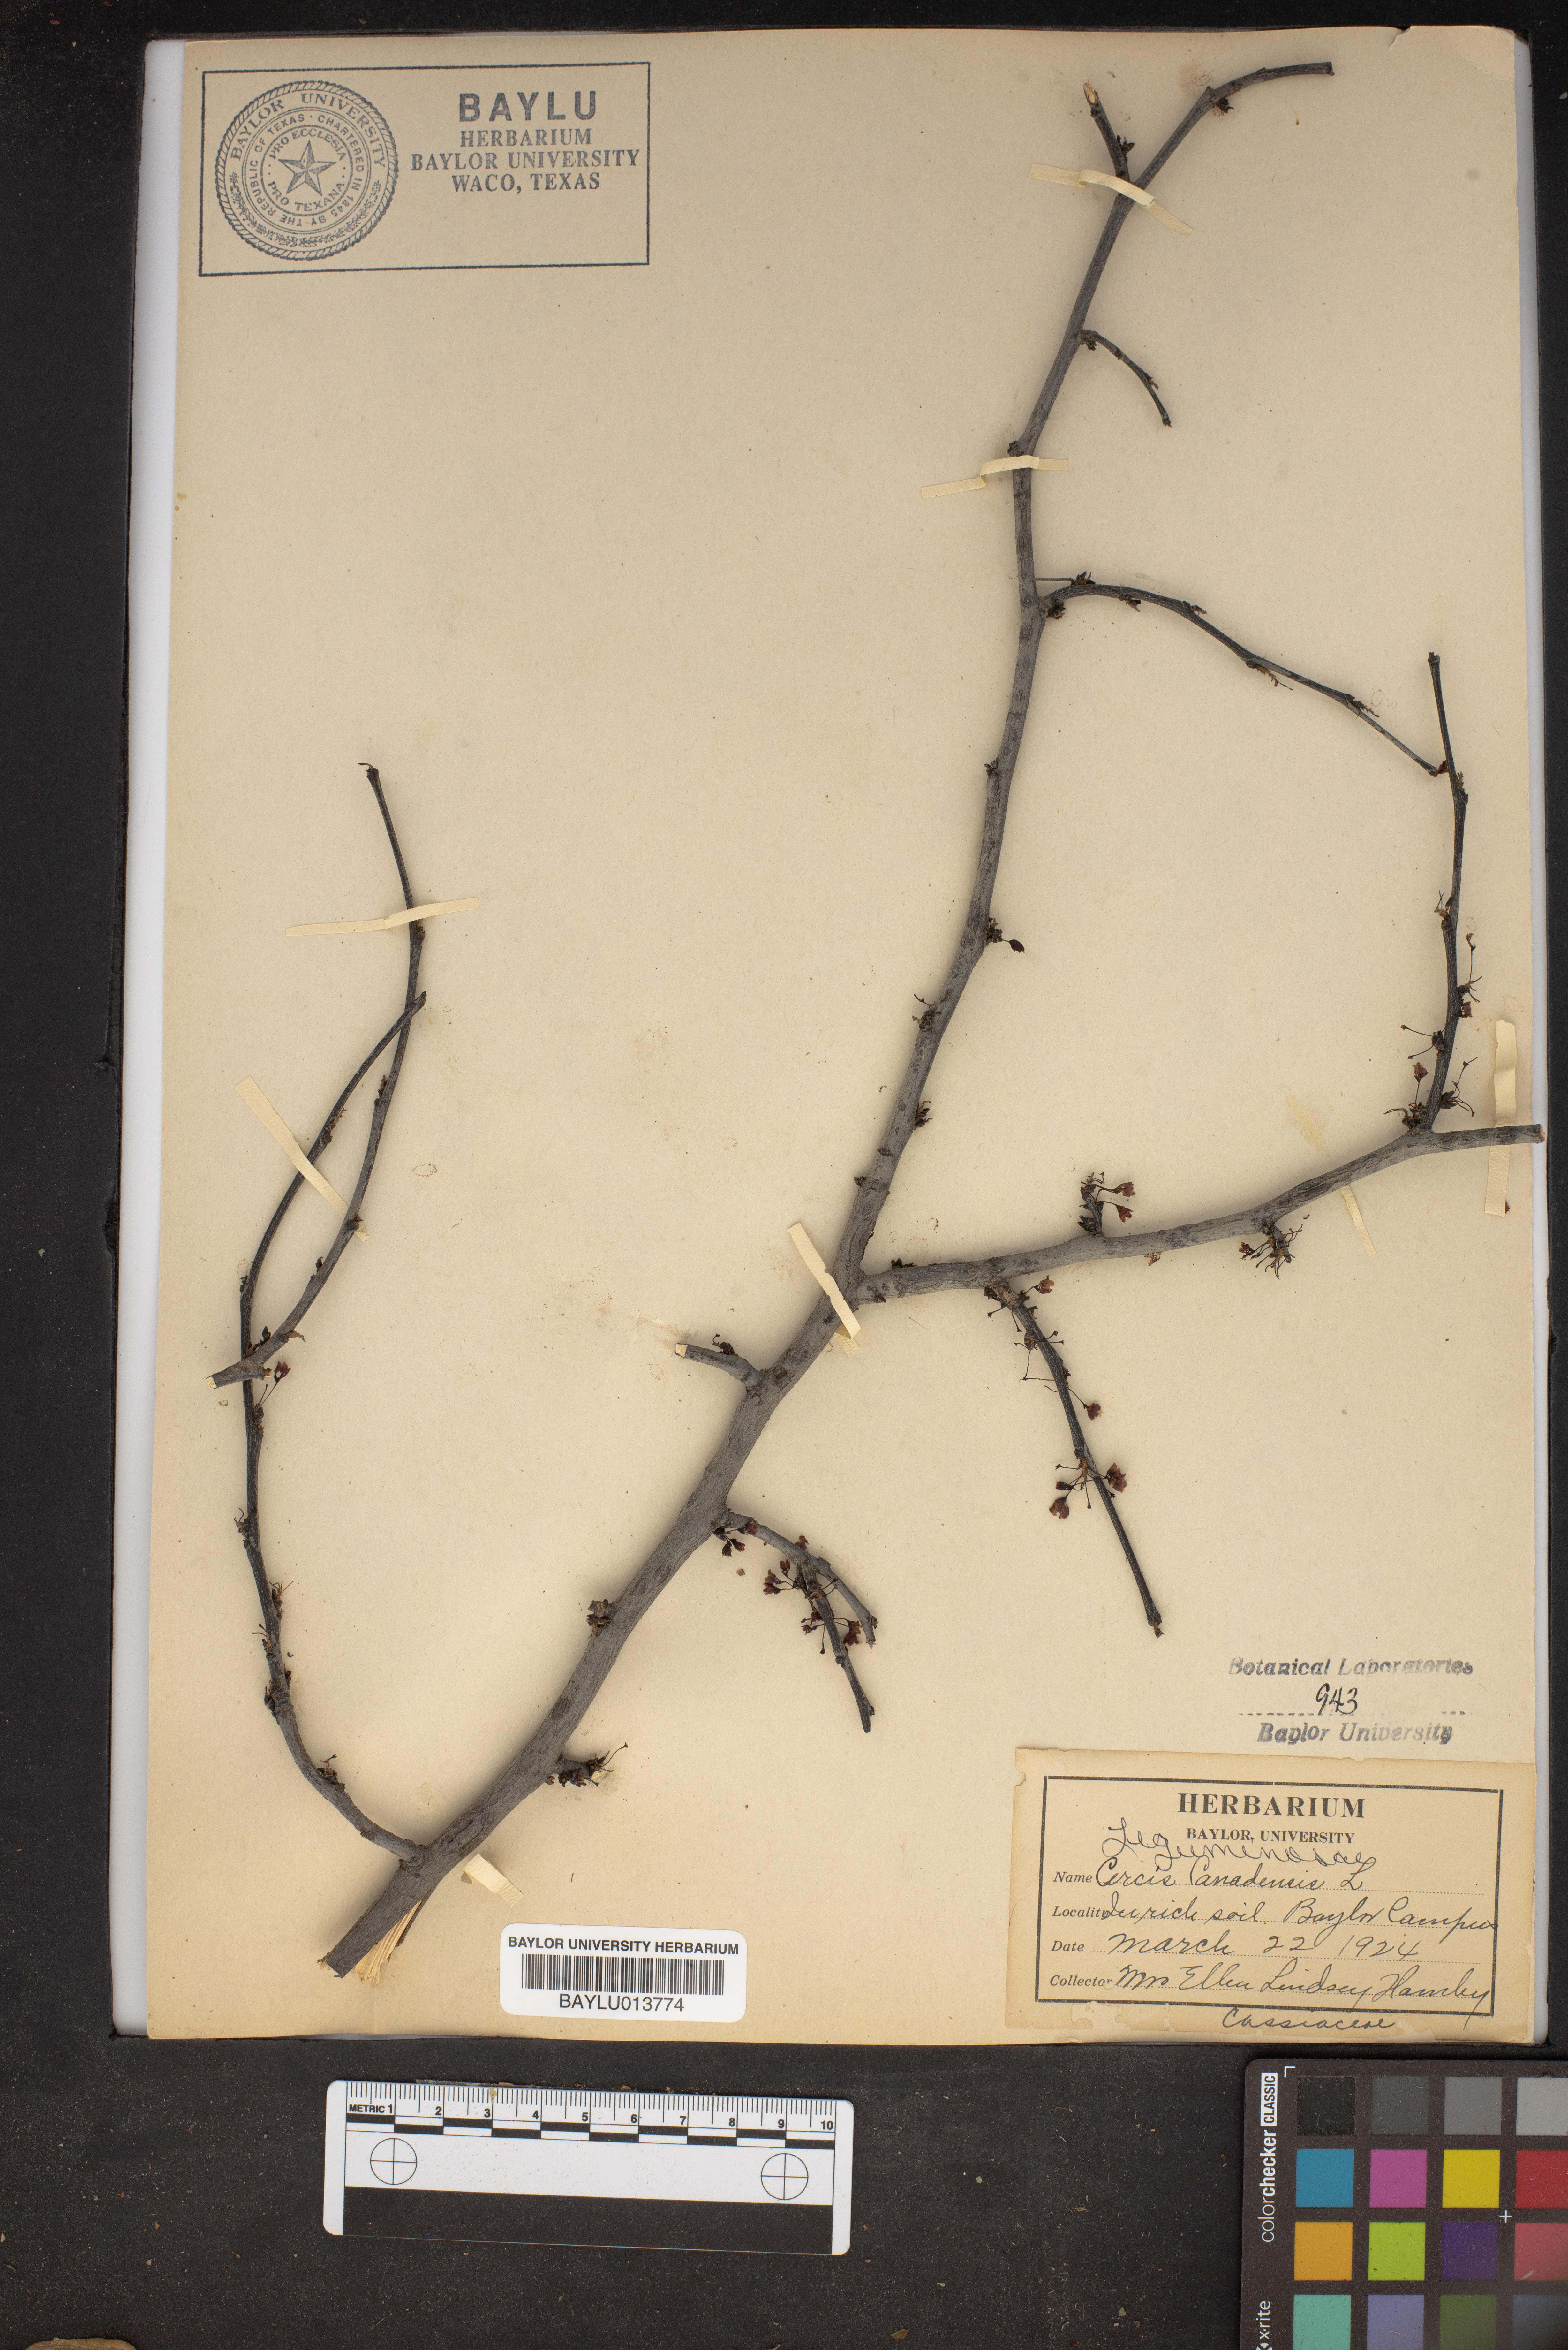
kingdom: Plantae
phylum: Tracheophyta
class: Magnoliopsida
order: Fabales
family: Fabaceae
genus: Cercis
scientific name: Cercis canadensis
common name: Eastern redbud
